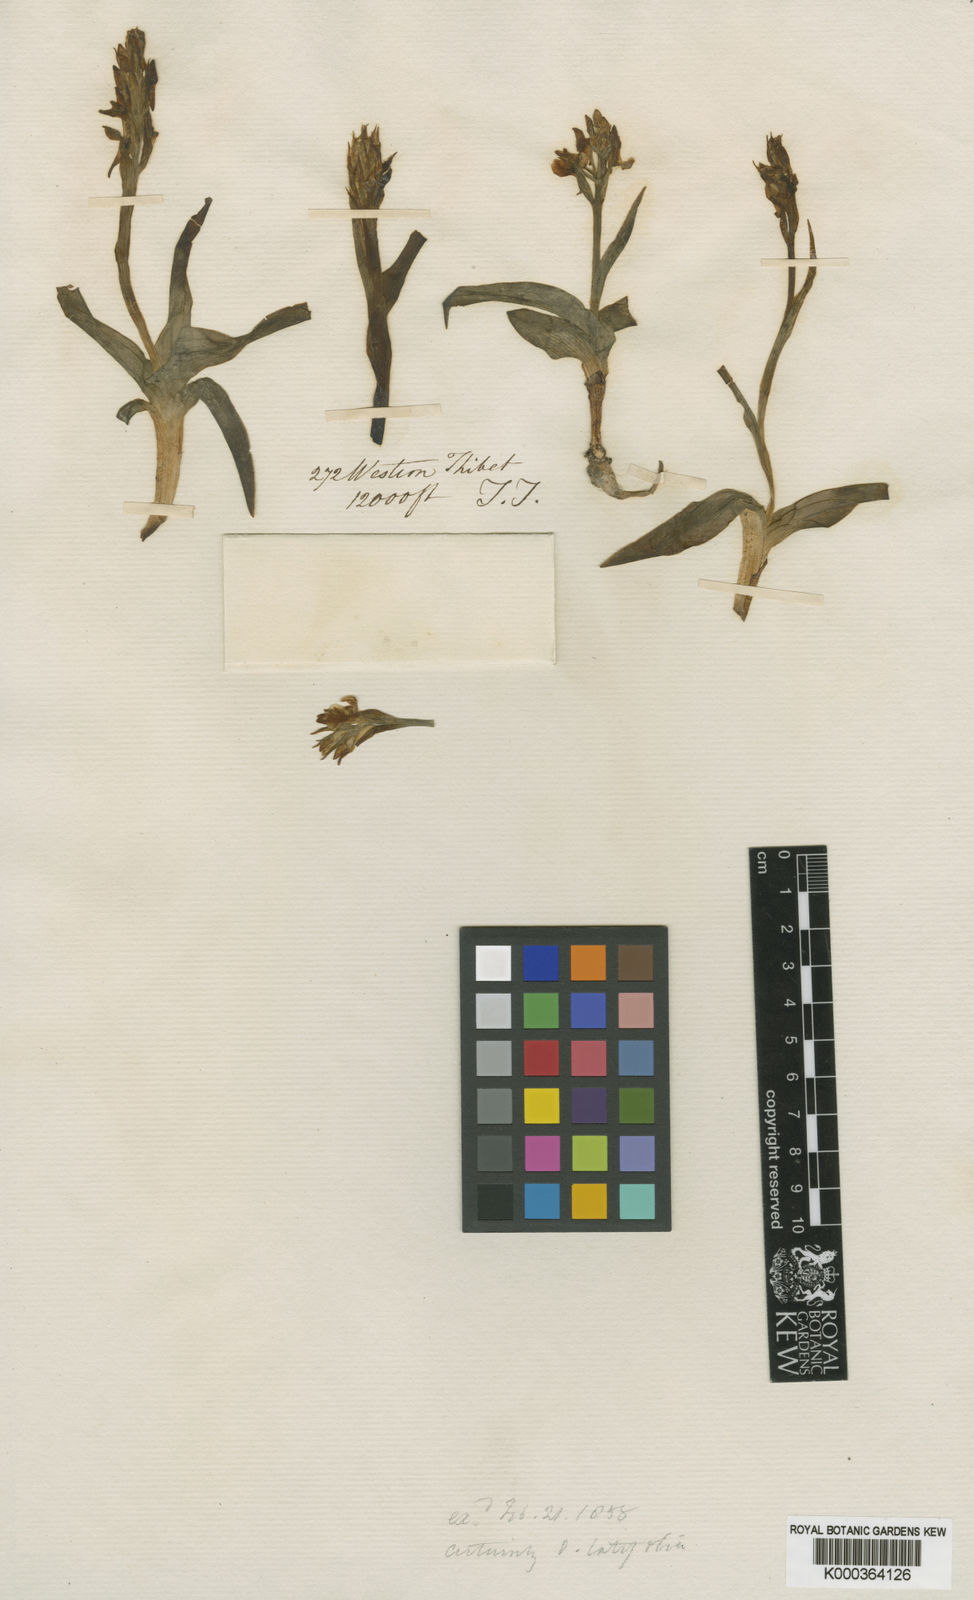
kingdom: Plantae
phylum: Tracheophyta
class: Liliopsida
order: Asparagales
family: Orchidaceae
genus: Orchis
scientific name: Orchis
